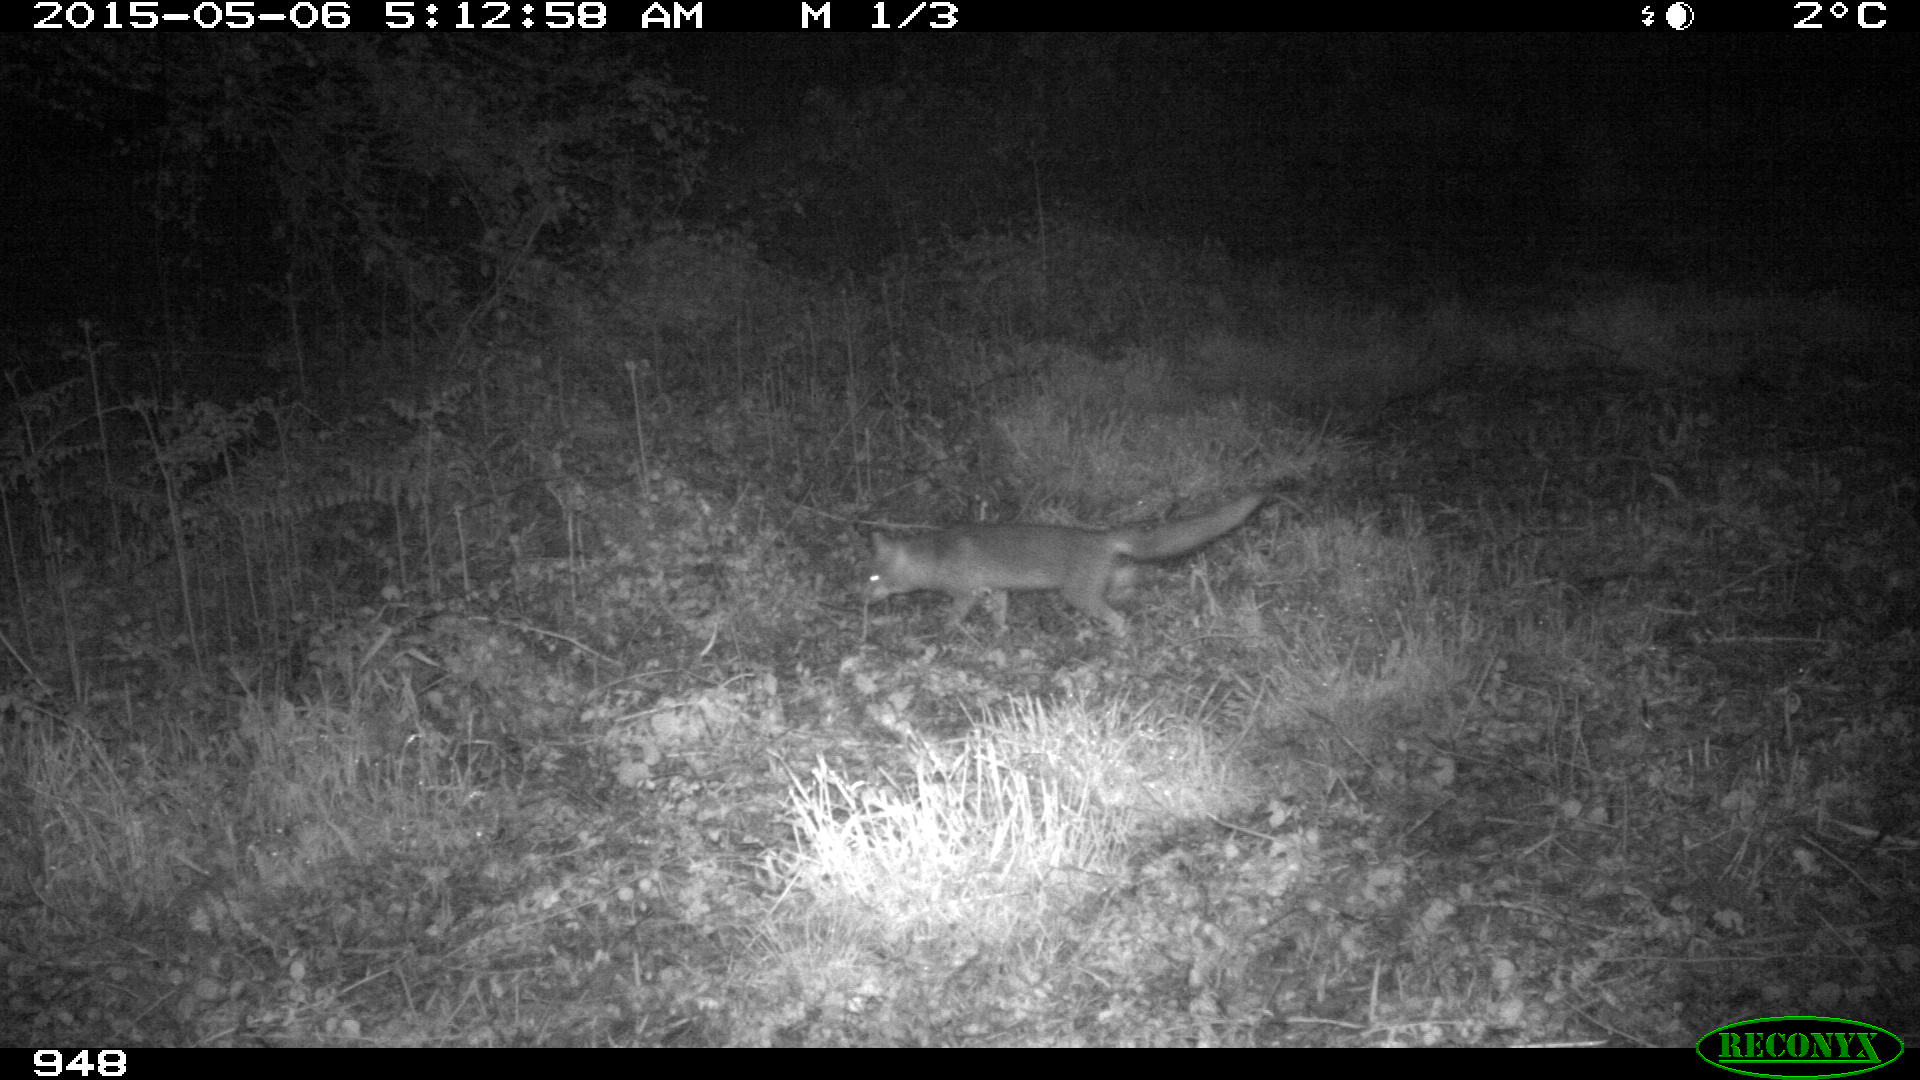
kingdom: Animalia
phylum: Chordata
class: Mammalia
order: Carnivora
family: Canidae
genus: Vulpes
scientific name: Vulpes vulpes
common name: Red fox
